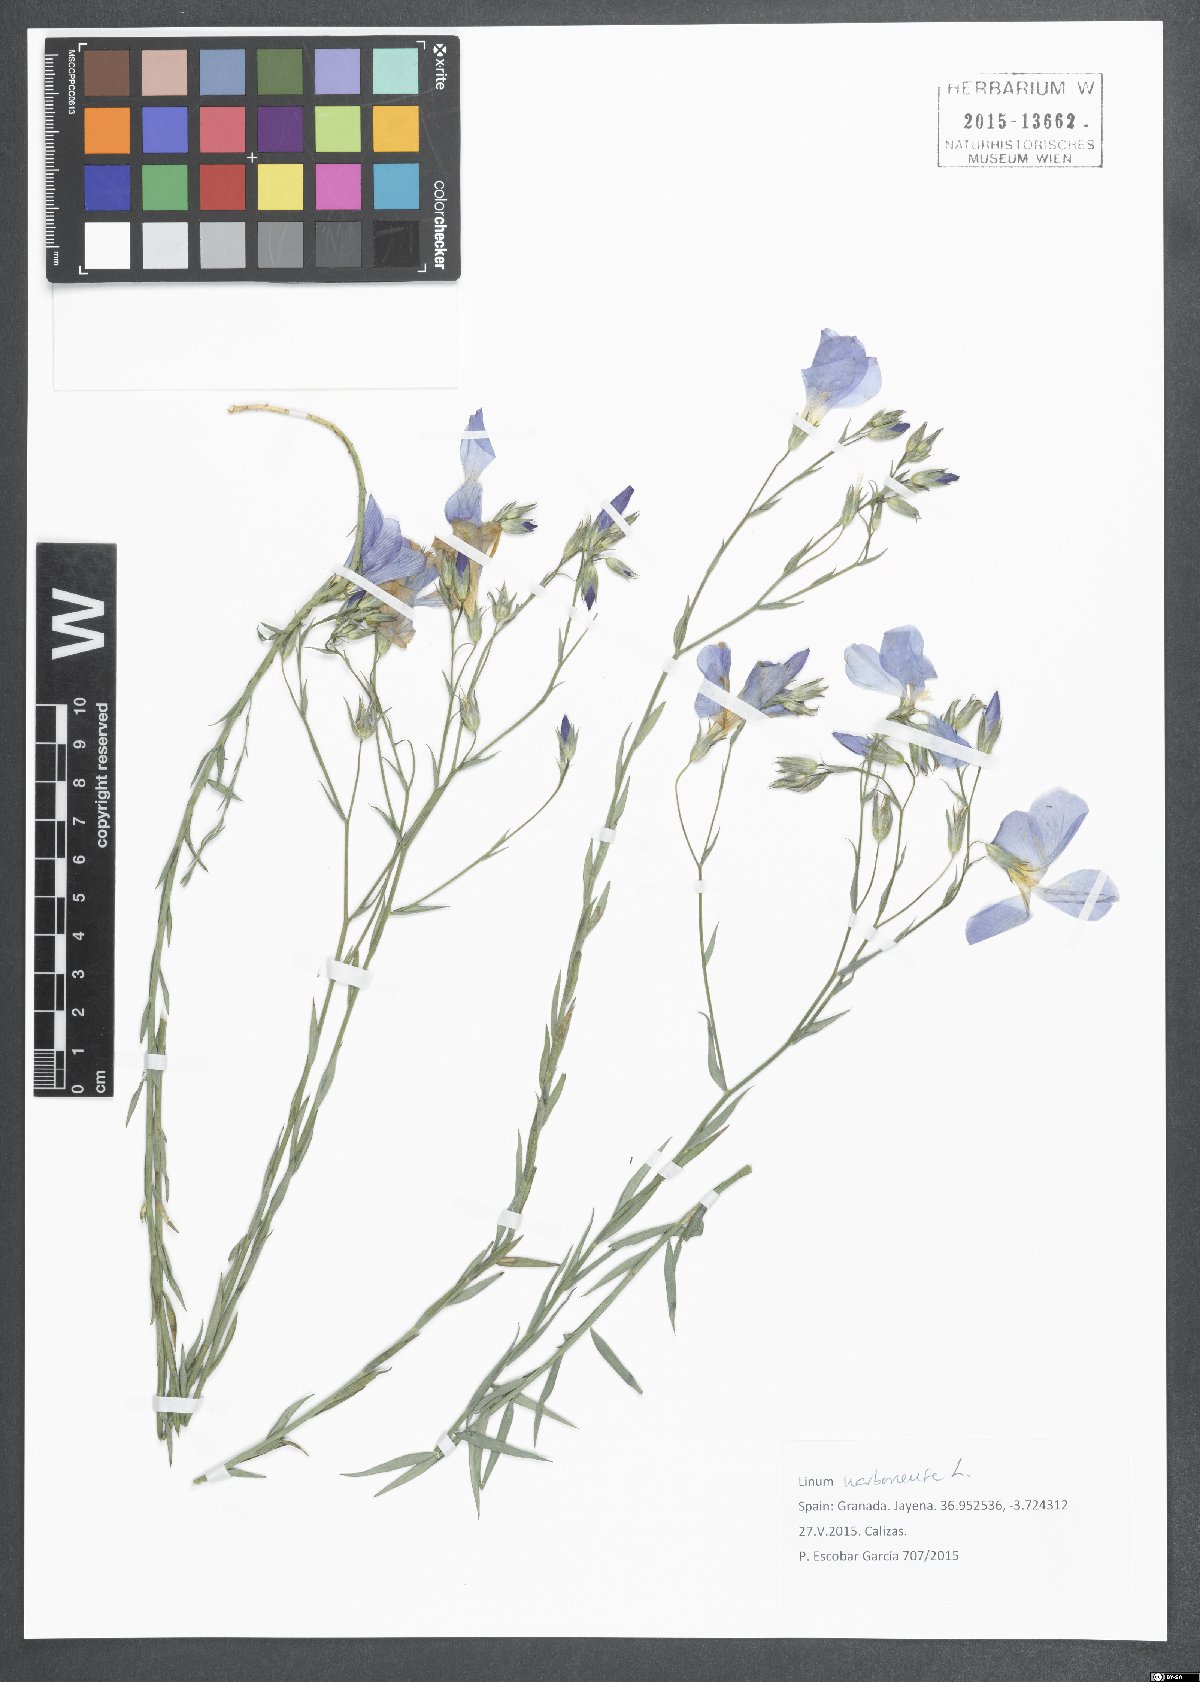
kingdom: Plantae
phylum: Tracheophyta
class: Magnoliopsida
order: Malpighiales
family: Linaceae
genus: Linum
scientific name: Linum narbonense
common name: Flax
